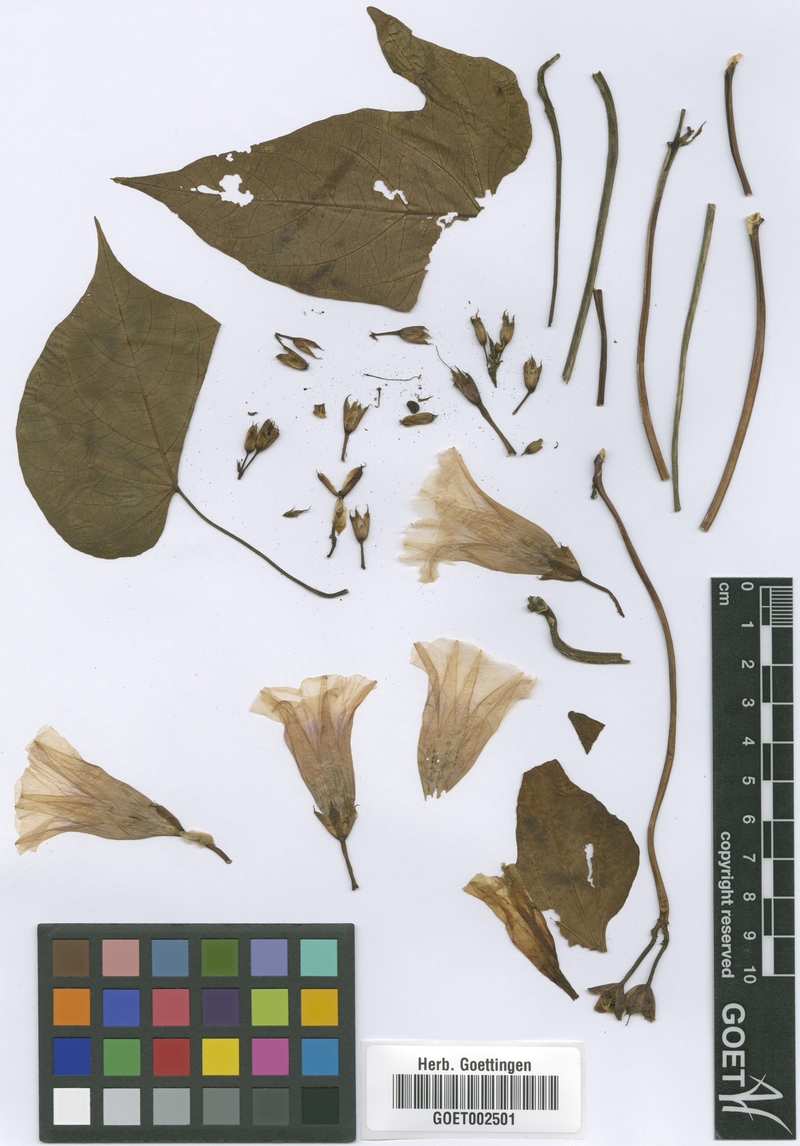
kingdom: Plantae
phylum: Tracheophyta
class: Magnoliopsida
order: Solanales
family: Convolvulaceae
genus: Ipomoea
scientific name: Ipomoea batatas
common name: Sweet-potato
